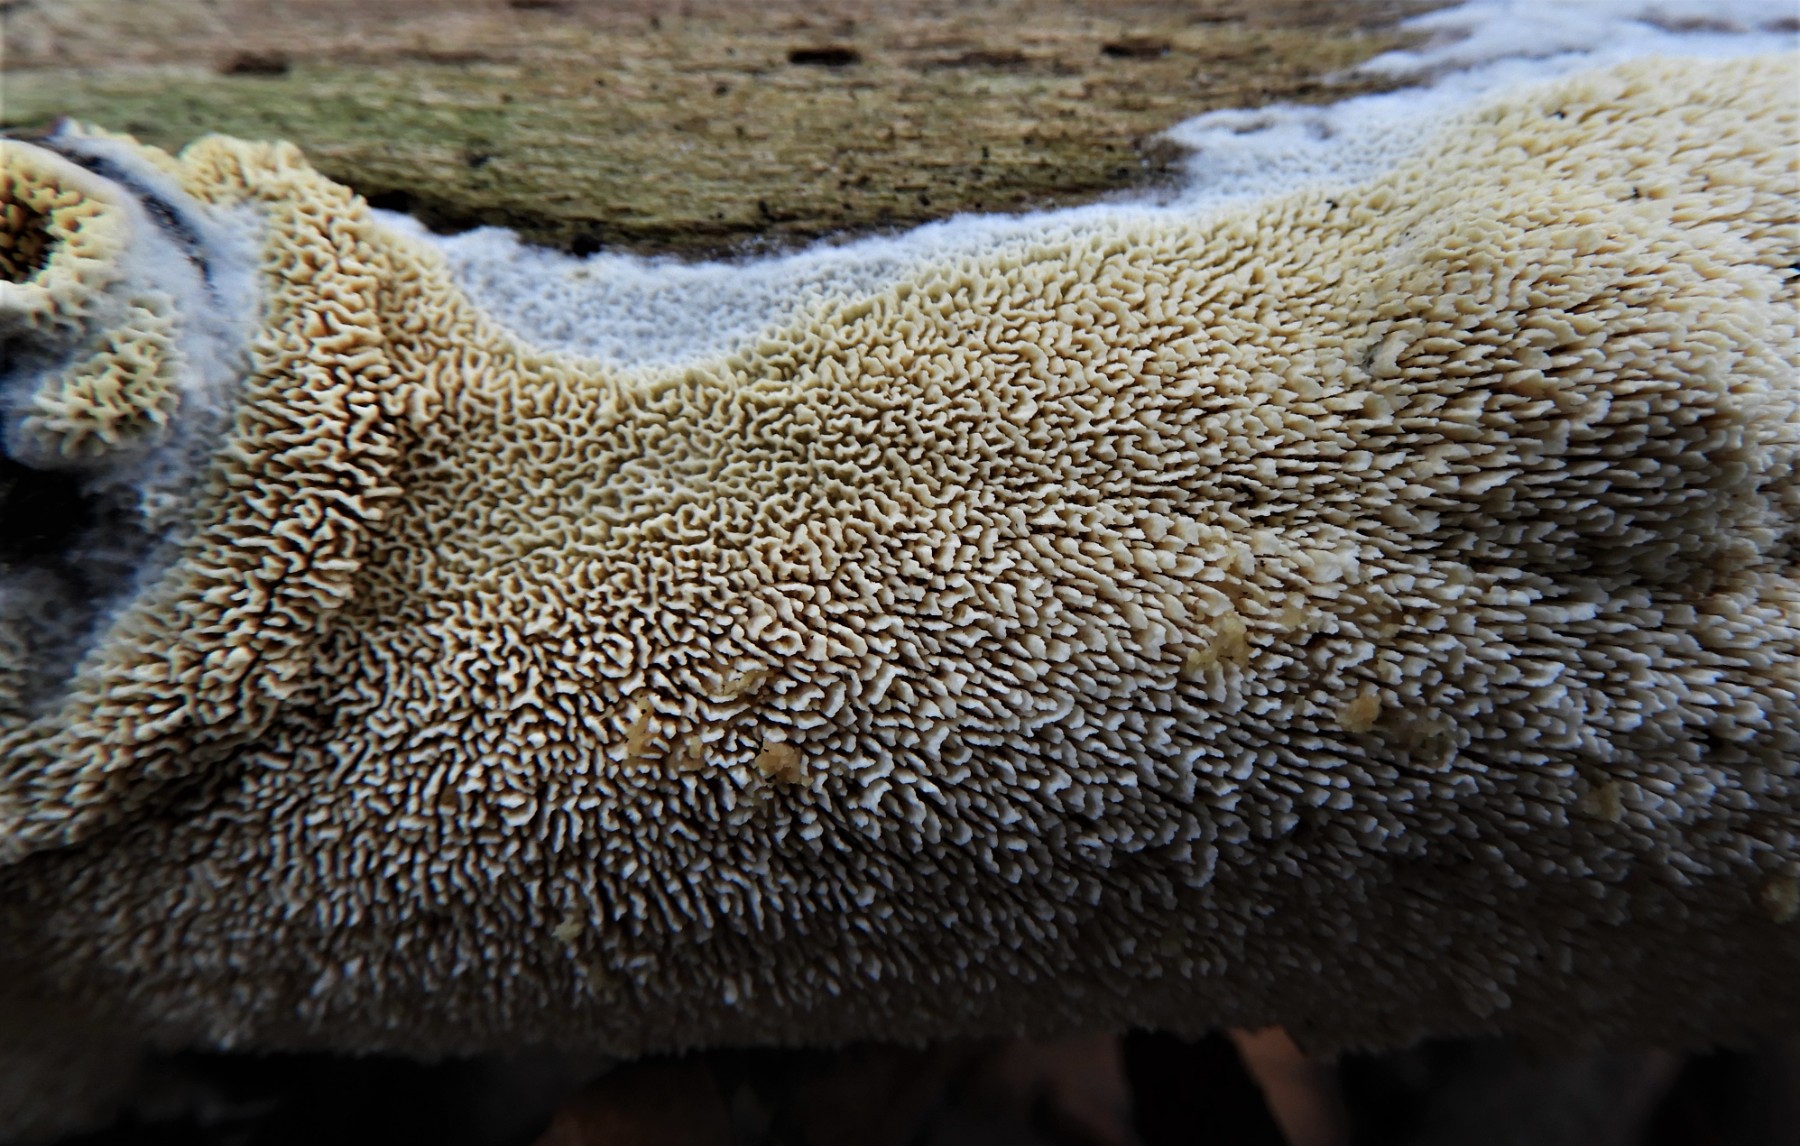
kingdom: Fungi
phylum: Basidiomycota
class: Agaricomycetes
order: Hymenochaetales
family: Schizoporaceae
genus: Xylodon
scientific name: Xylodon
